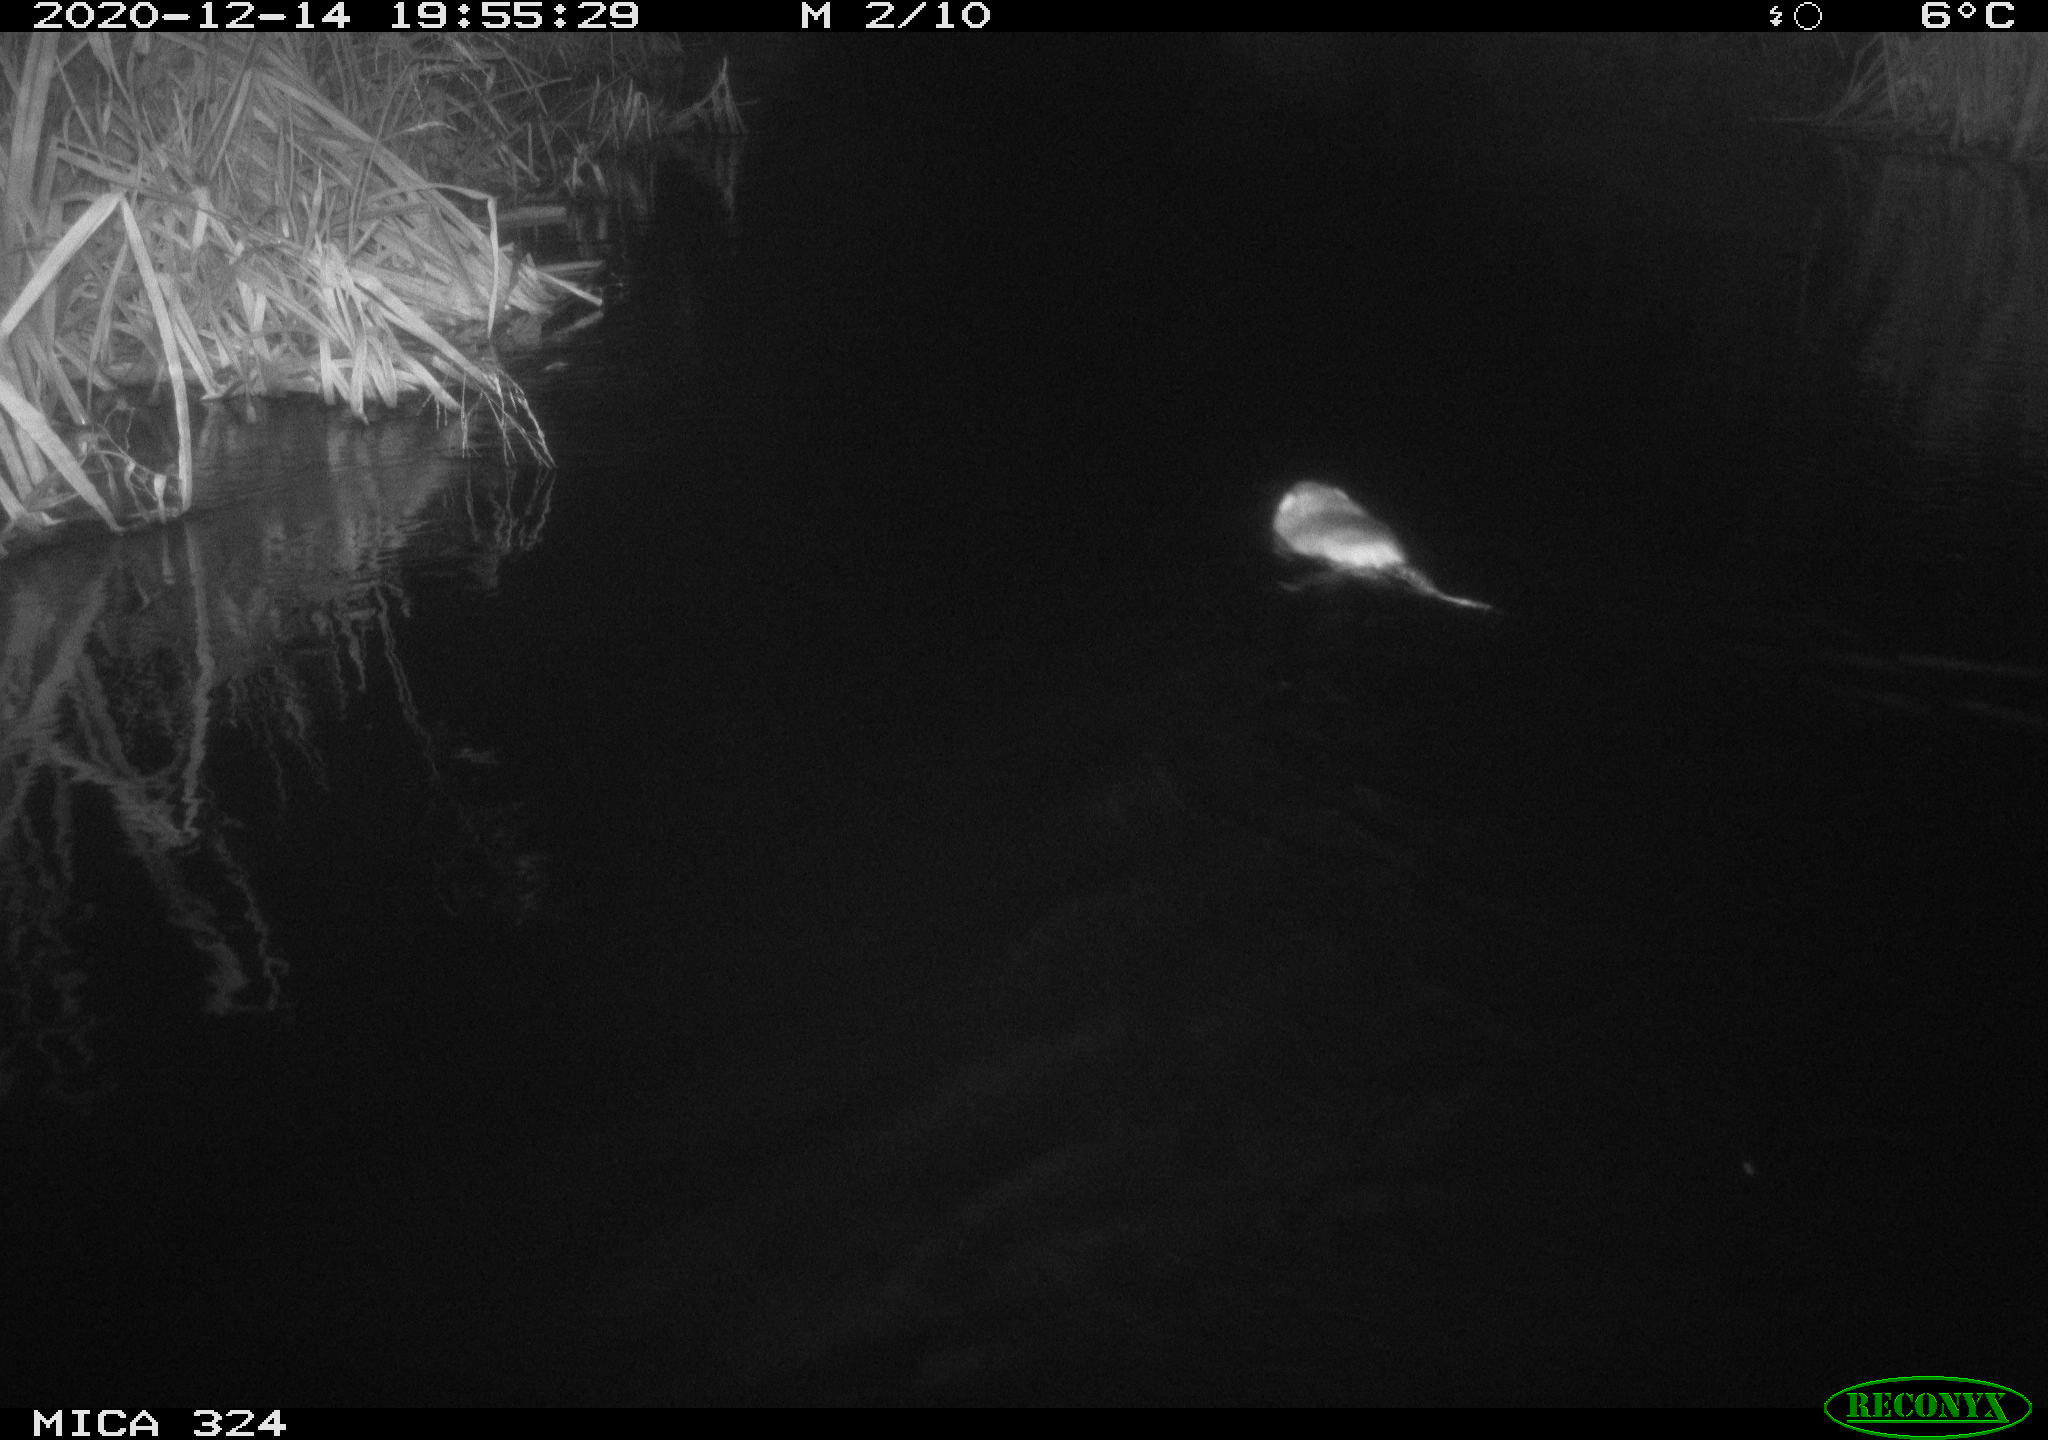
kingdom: Animalia
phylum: Chordata
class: Mammalia
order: Rodentia
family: Myocastoridae
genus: Myocastor
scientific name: Myocastor coypus
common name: Coypu
